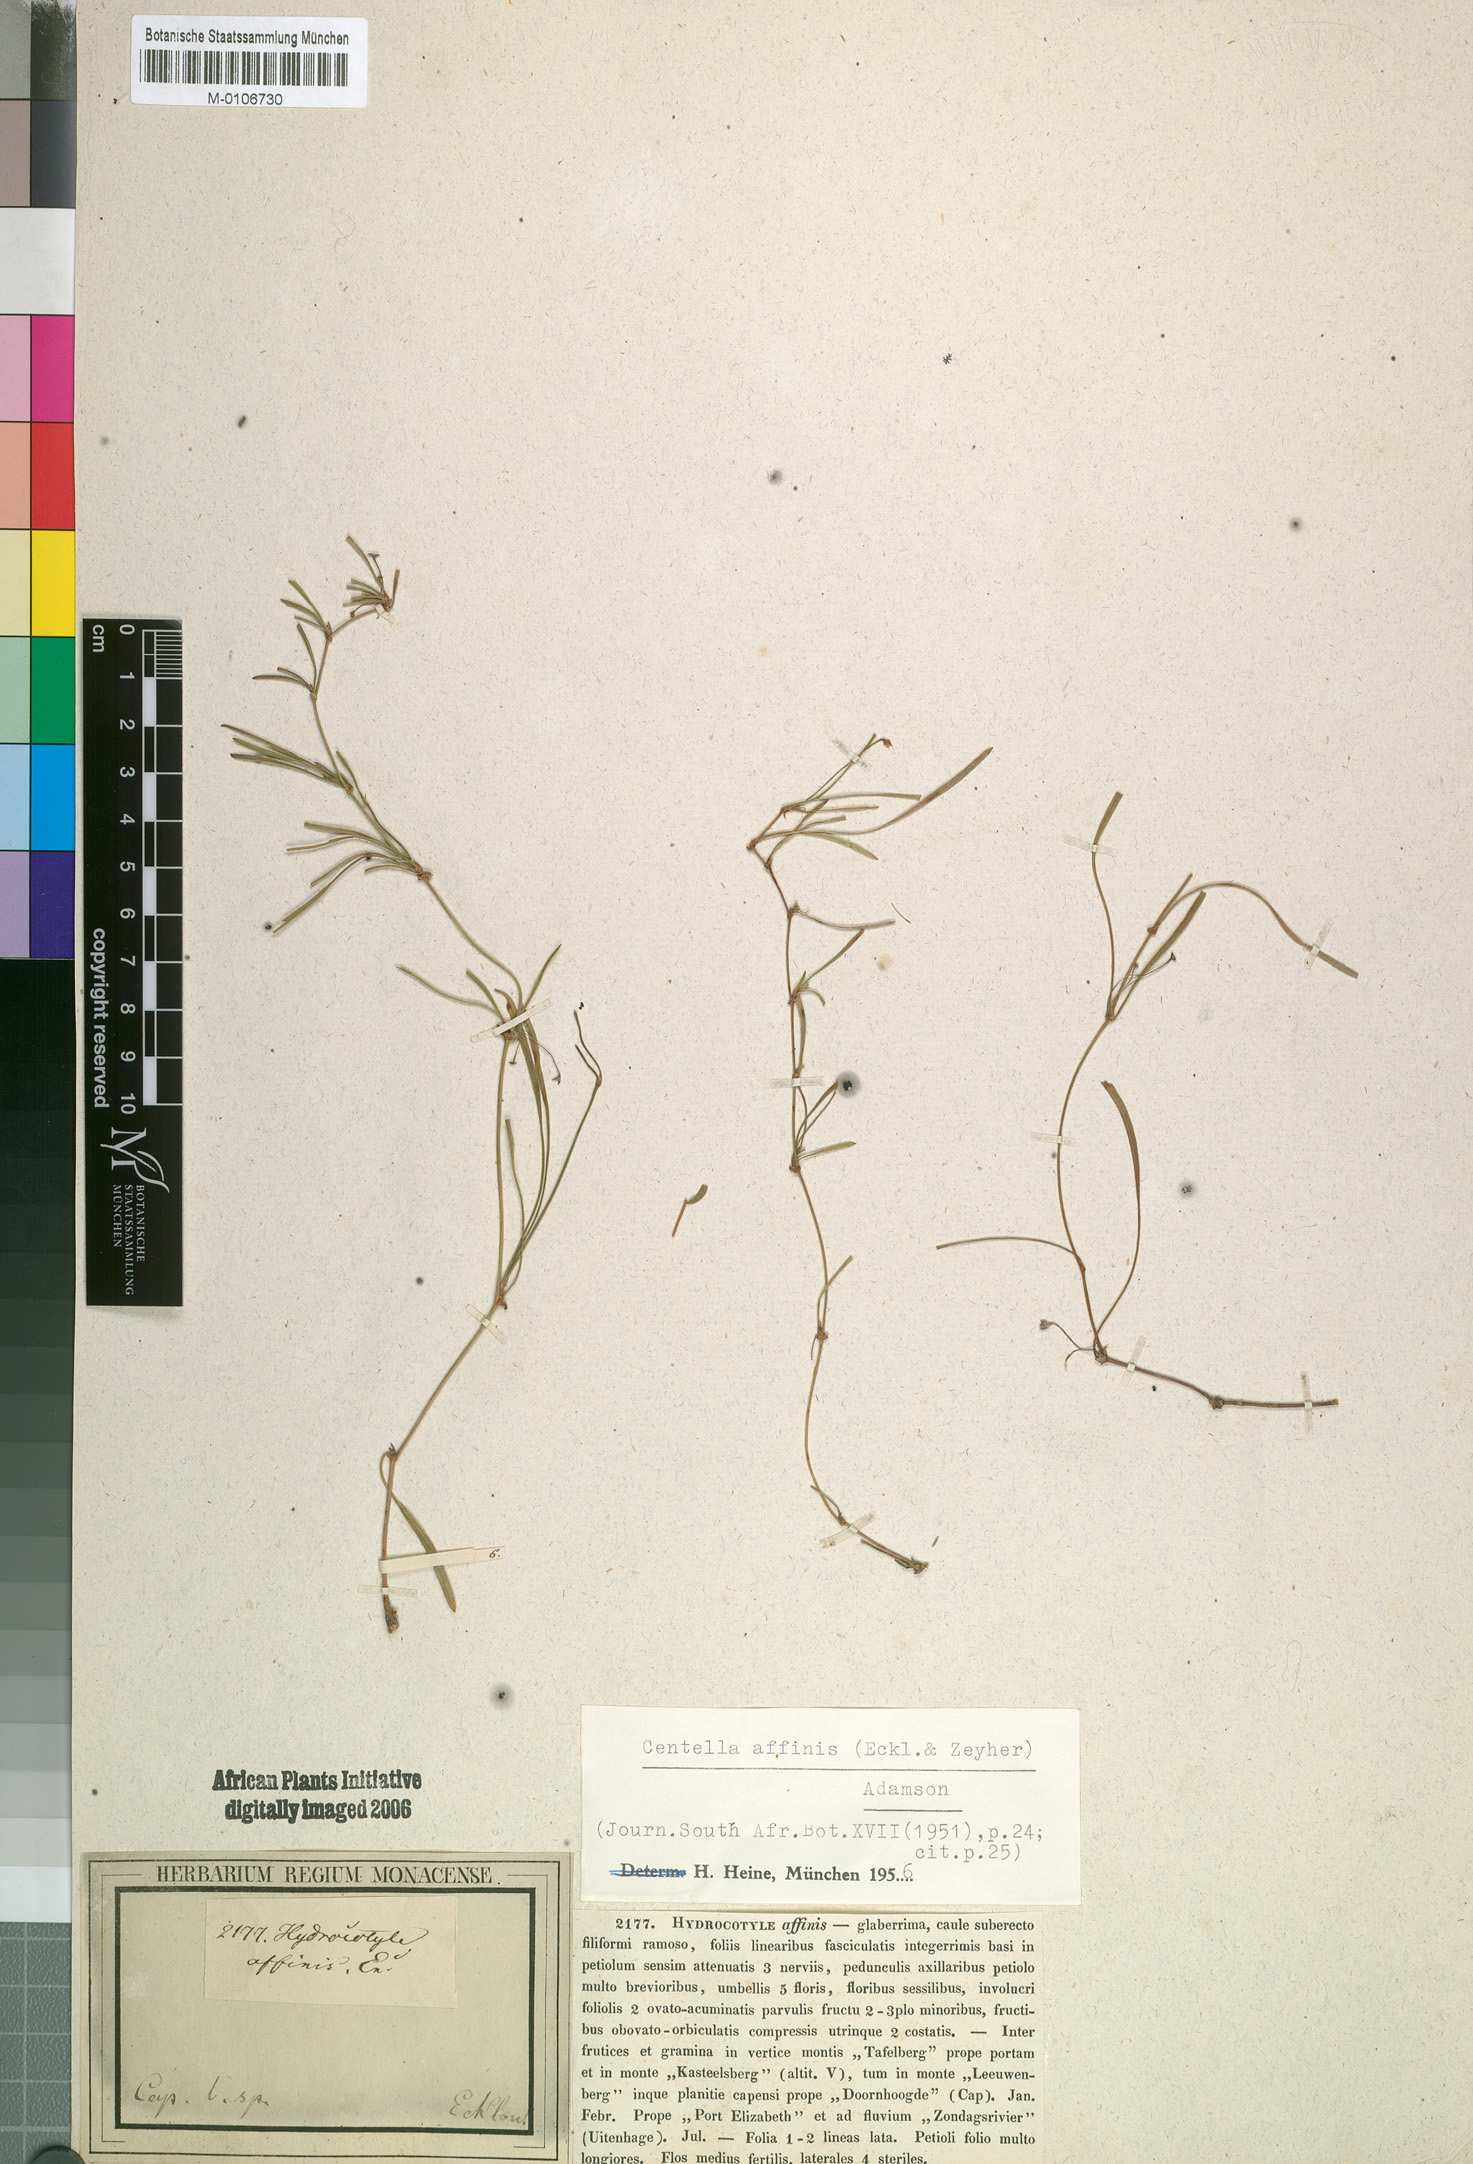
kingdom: Plantae
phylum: Tracheophyta
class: Magnoliopsida
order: Apiales
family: Apiaceae
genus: Centella
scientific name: Centella affinis
